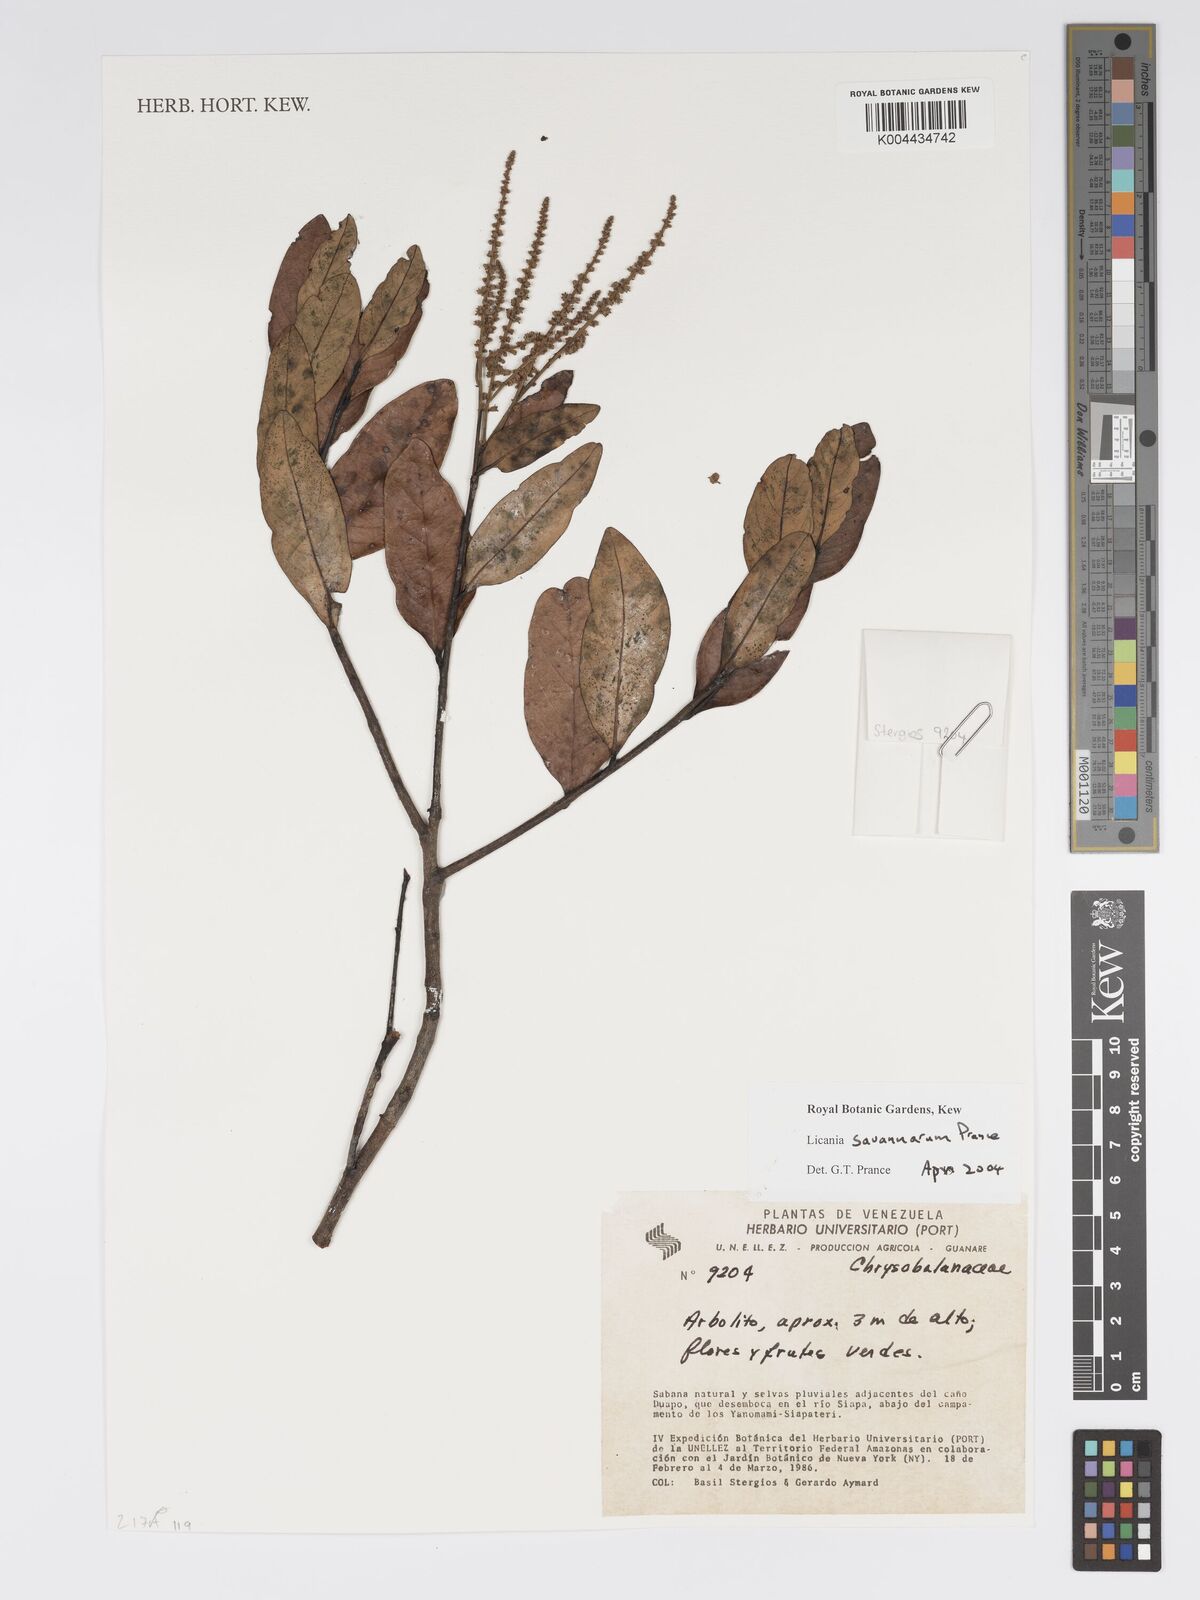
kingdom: Plantae
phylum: Tracheophyta
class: Magnoliopsida
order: Malpighiales
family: Chrysobalanaceae
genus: Licania
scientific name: Licania savannarum
